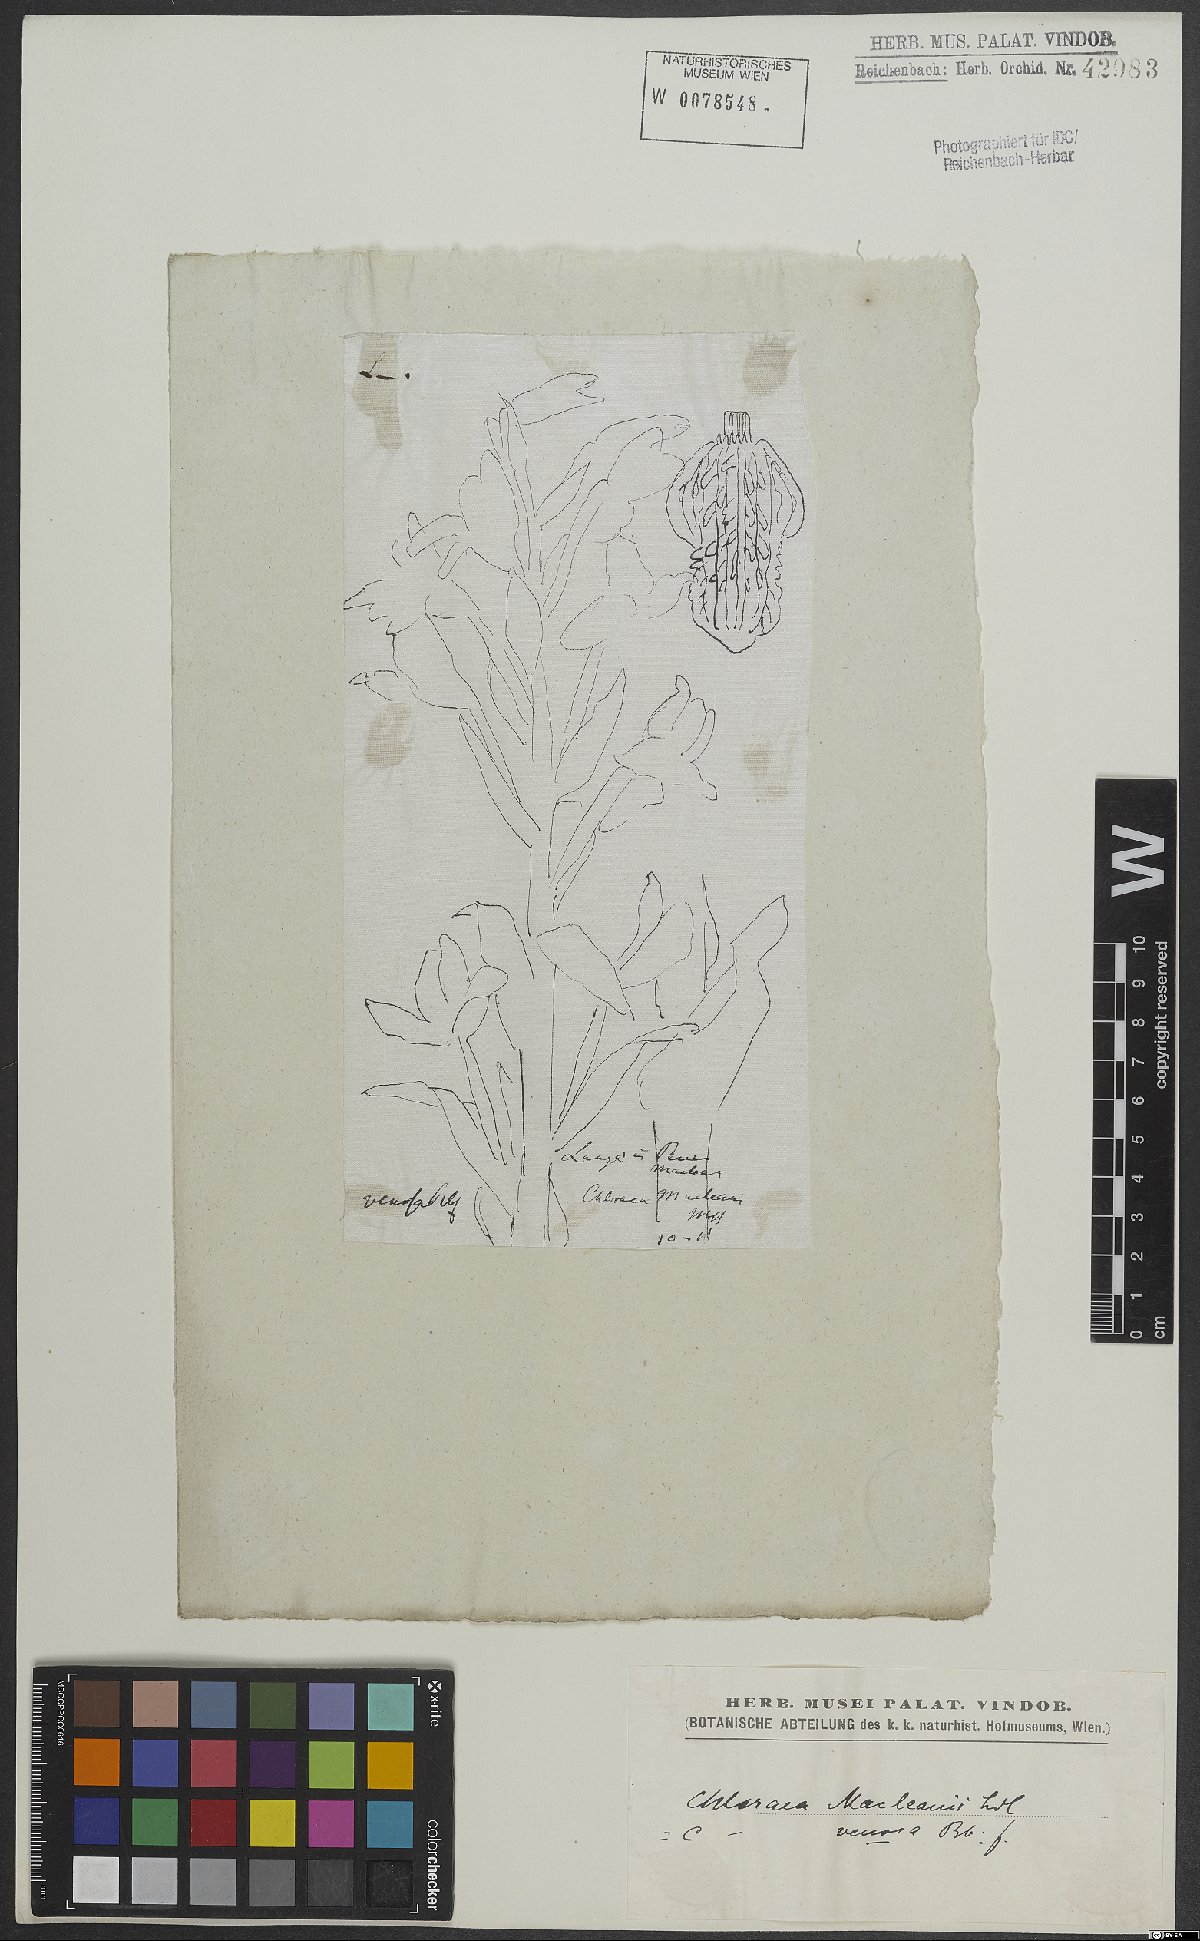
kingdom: Plantae
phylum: Tracheophyta
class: Liliopsida
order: Asparagales
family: Orchidaceae
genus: Chloraea
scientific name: Chloraea venosa
